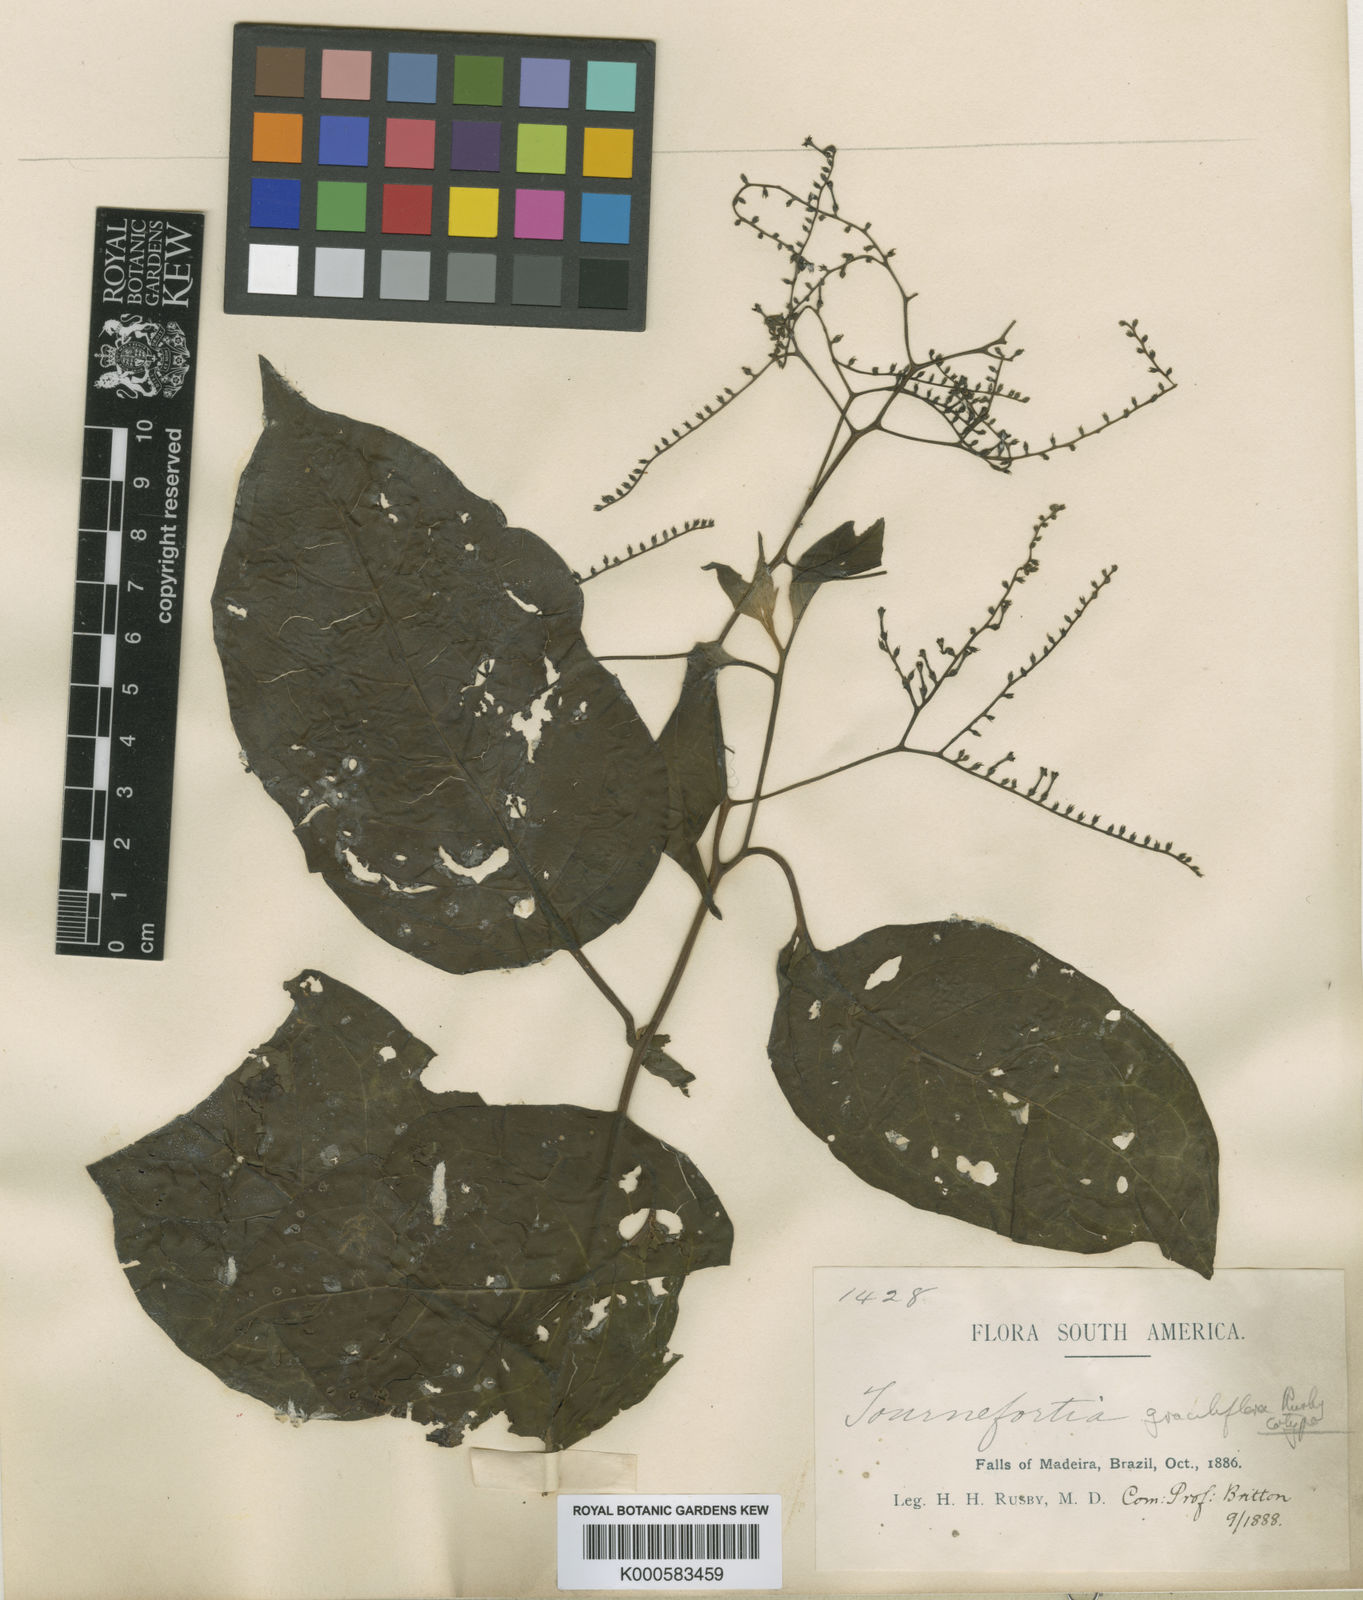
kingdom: Plantae
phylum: Tracheophyta
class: Magnoliopsida
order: Boraginales
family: Heliotropiaceae
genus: Myriopus
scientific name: Myriopus paniculatus
